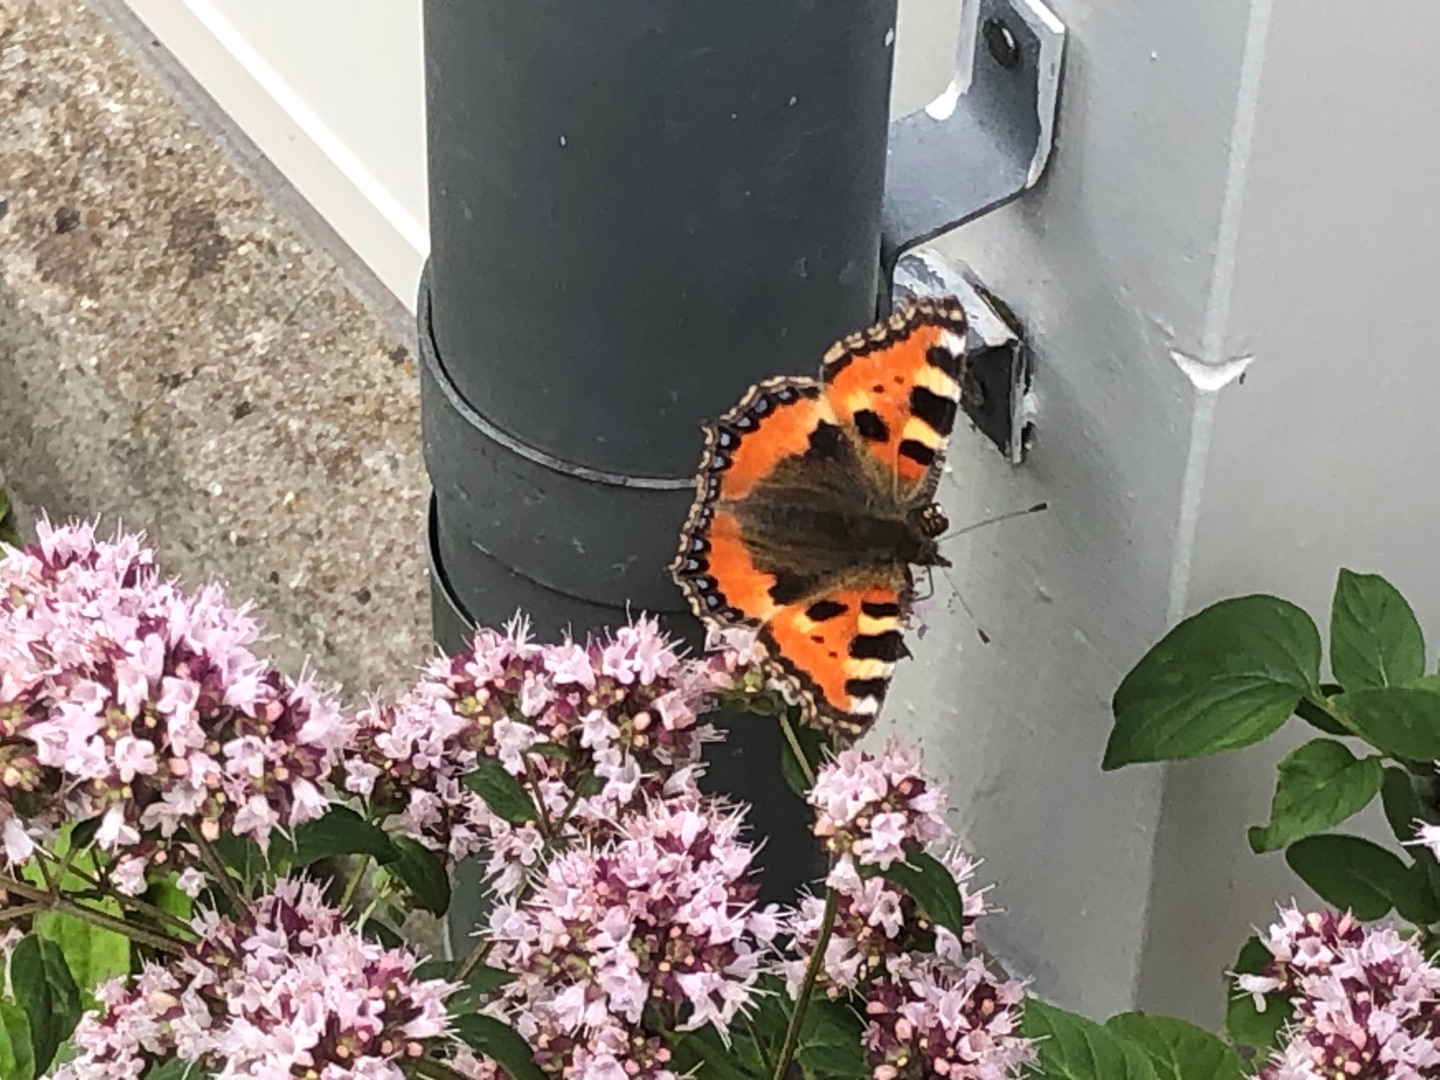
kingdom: Animalia
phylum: Arthropoda
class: Insecta
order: Lepidoptera
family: Nymphalidae
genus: Aglais
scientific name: Aglais urticae
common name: Nældens takvinge
